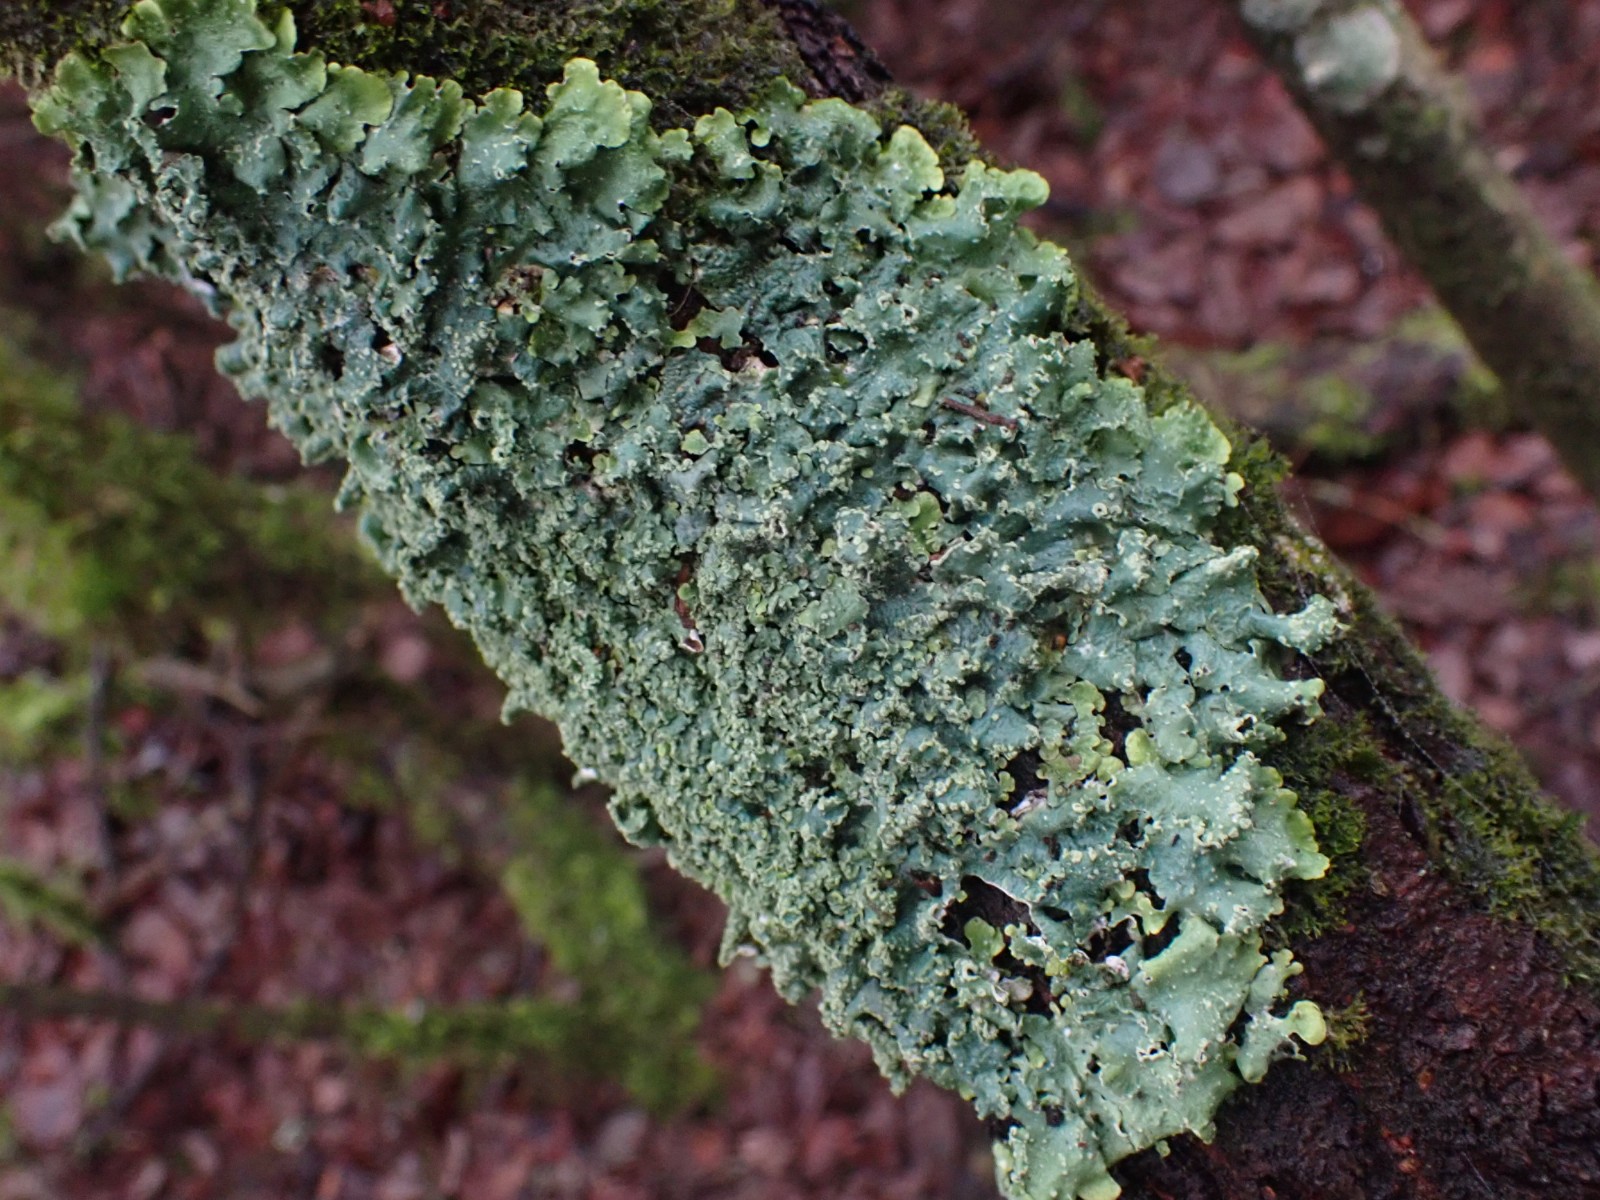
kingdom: Fungi
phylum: Ascomycota
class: Lecanoromycetes
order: Lecanorales
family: Parmeliaceae
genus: Punctelia
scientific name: Punctelia subrudecta
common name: punkt-skållav
